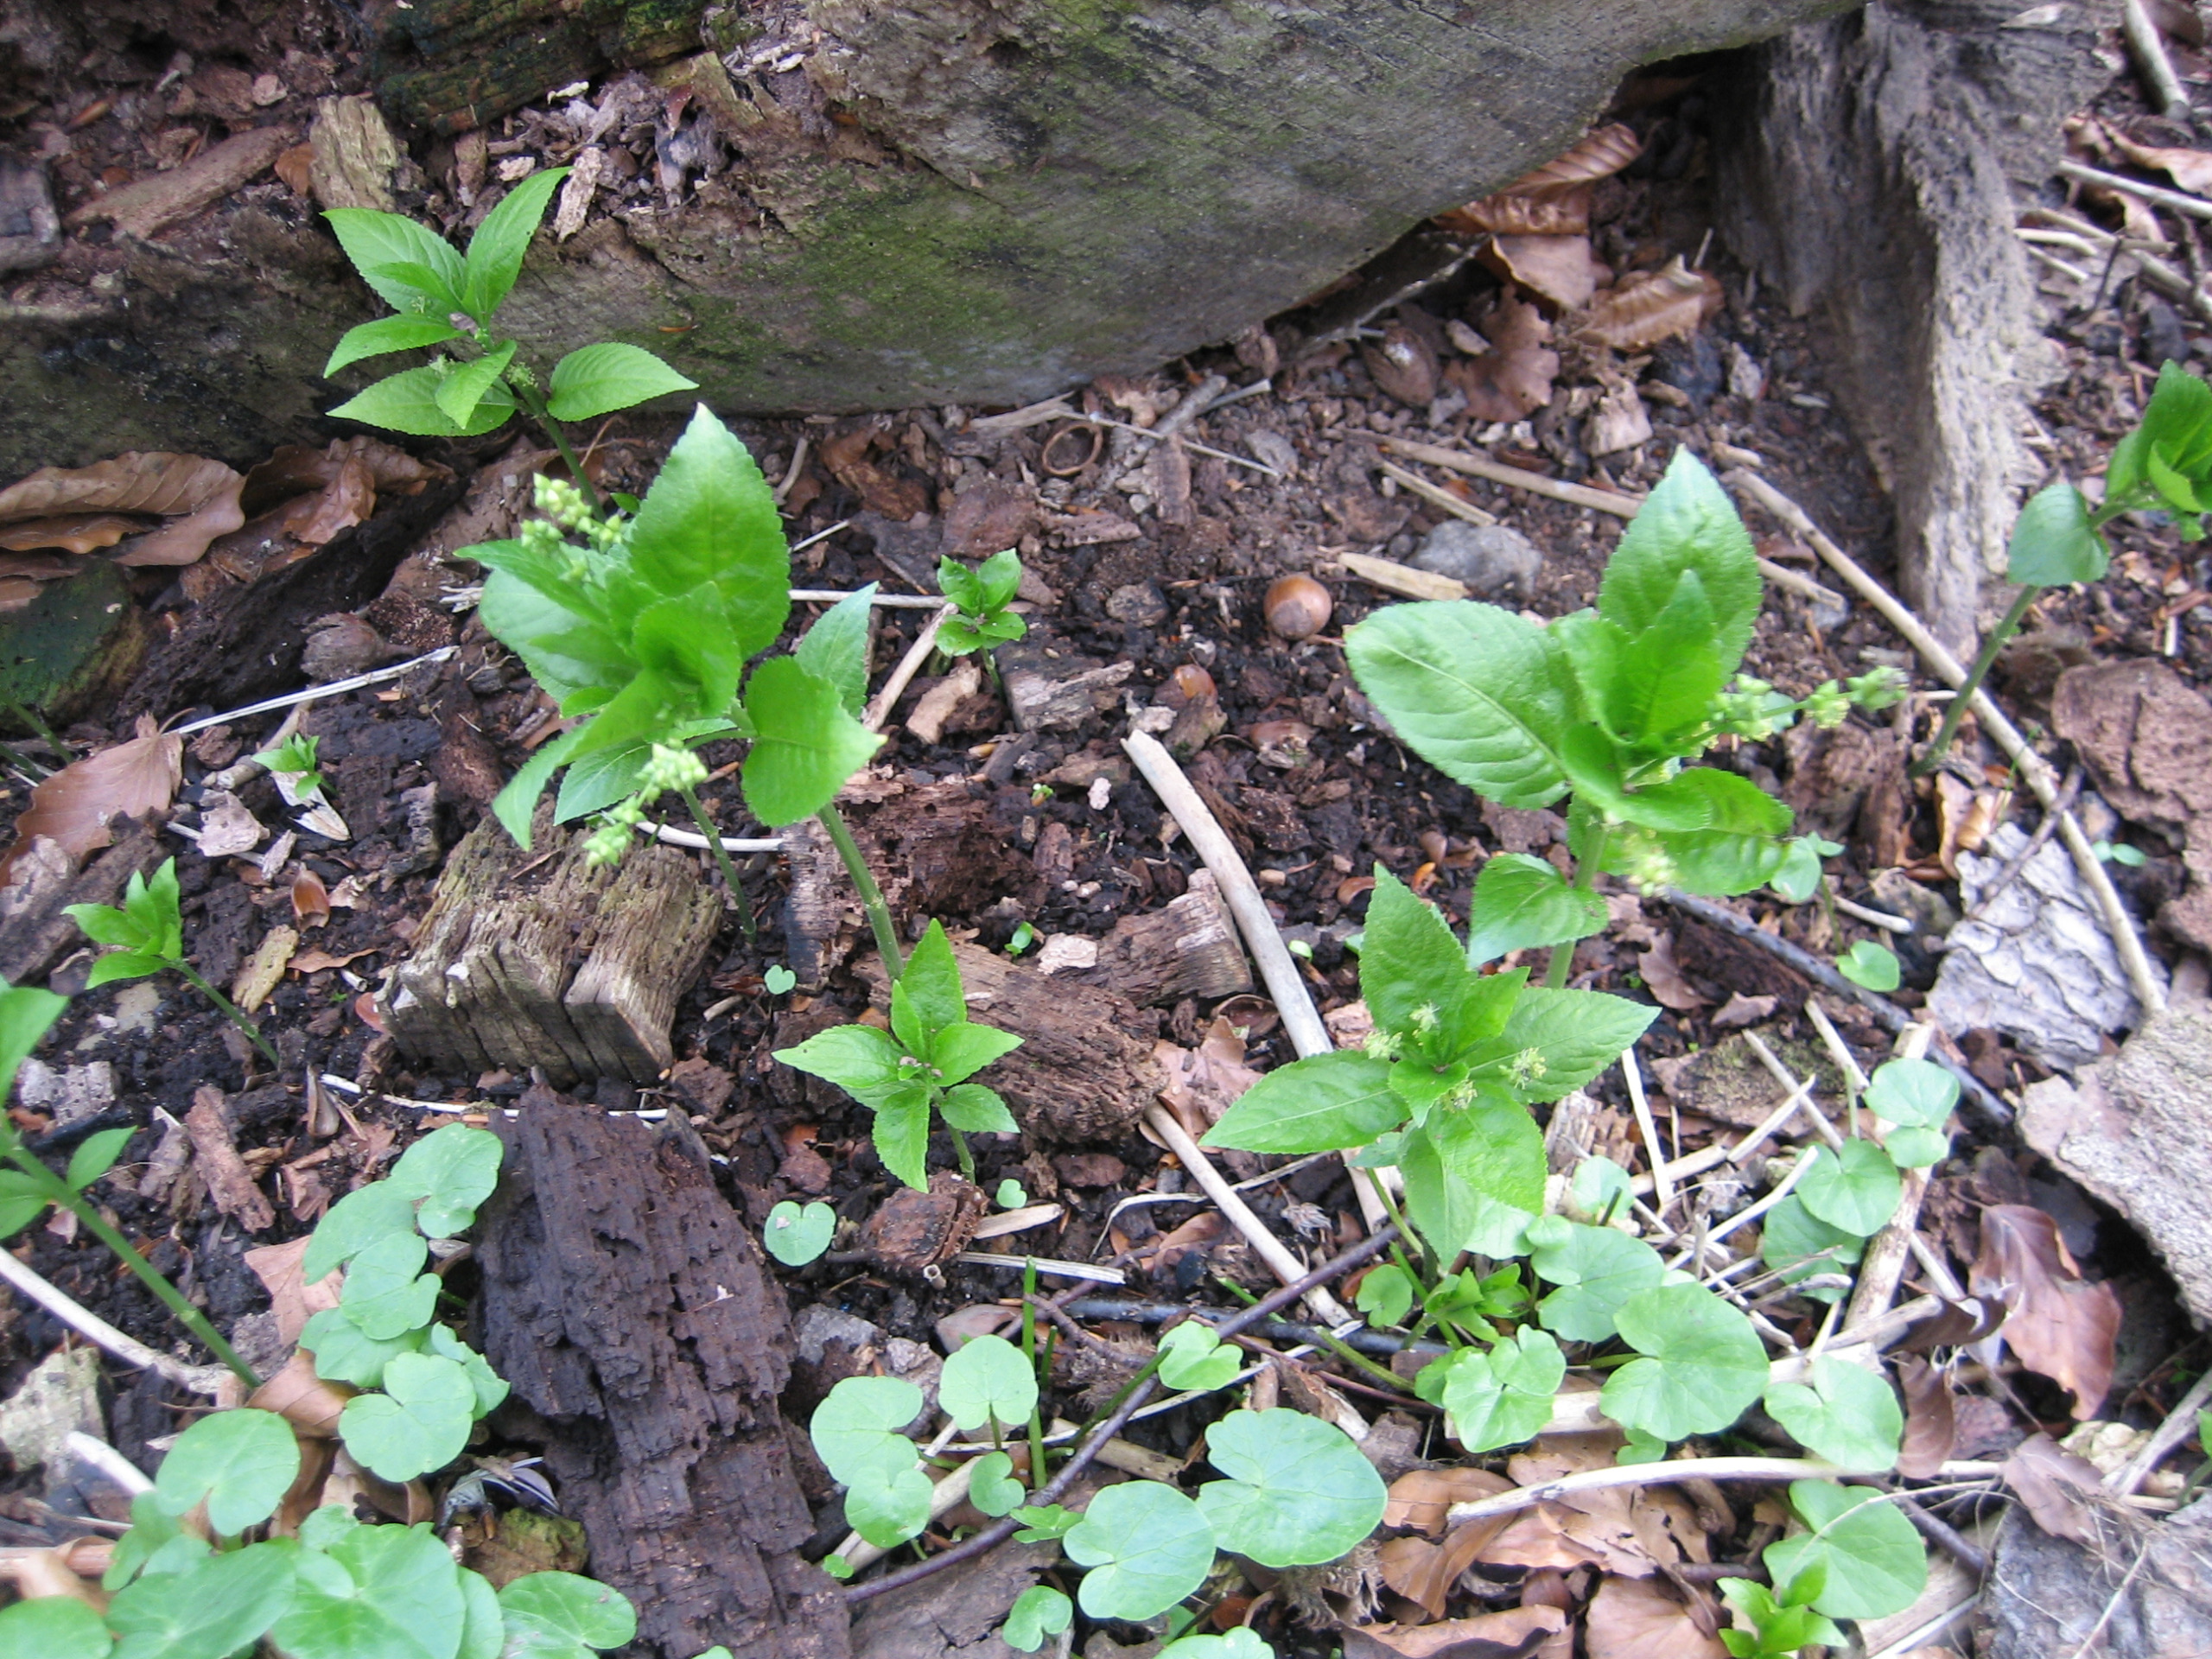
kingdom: Plantae
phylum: Tracheophyta
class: Magnoliopsida
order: Malpighiales
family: Euphorbiaceae
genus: Mercurialis
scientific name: Mercurialis perennis
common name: Almindelig bingelurt
